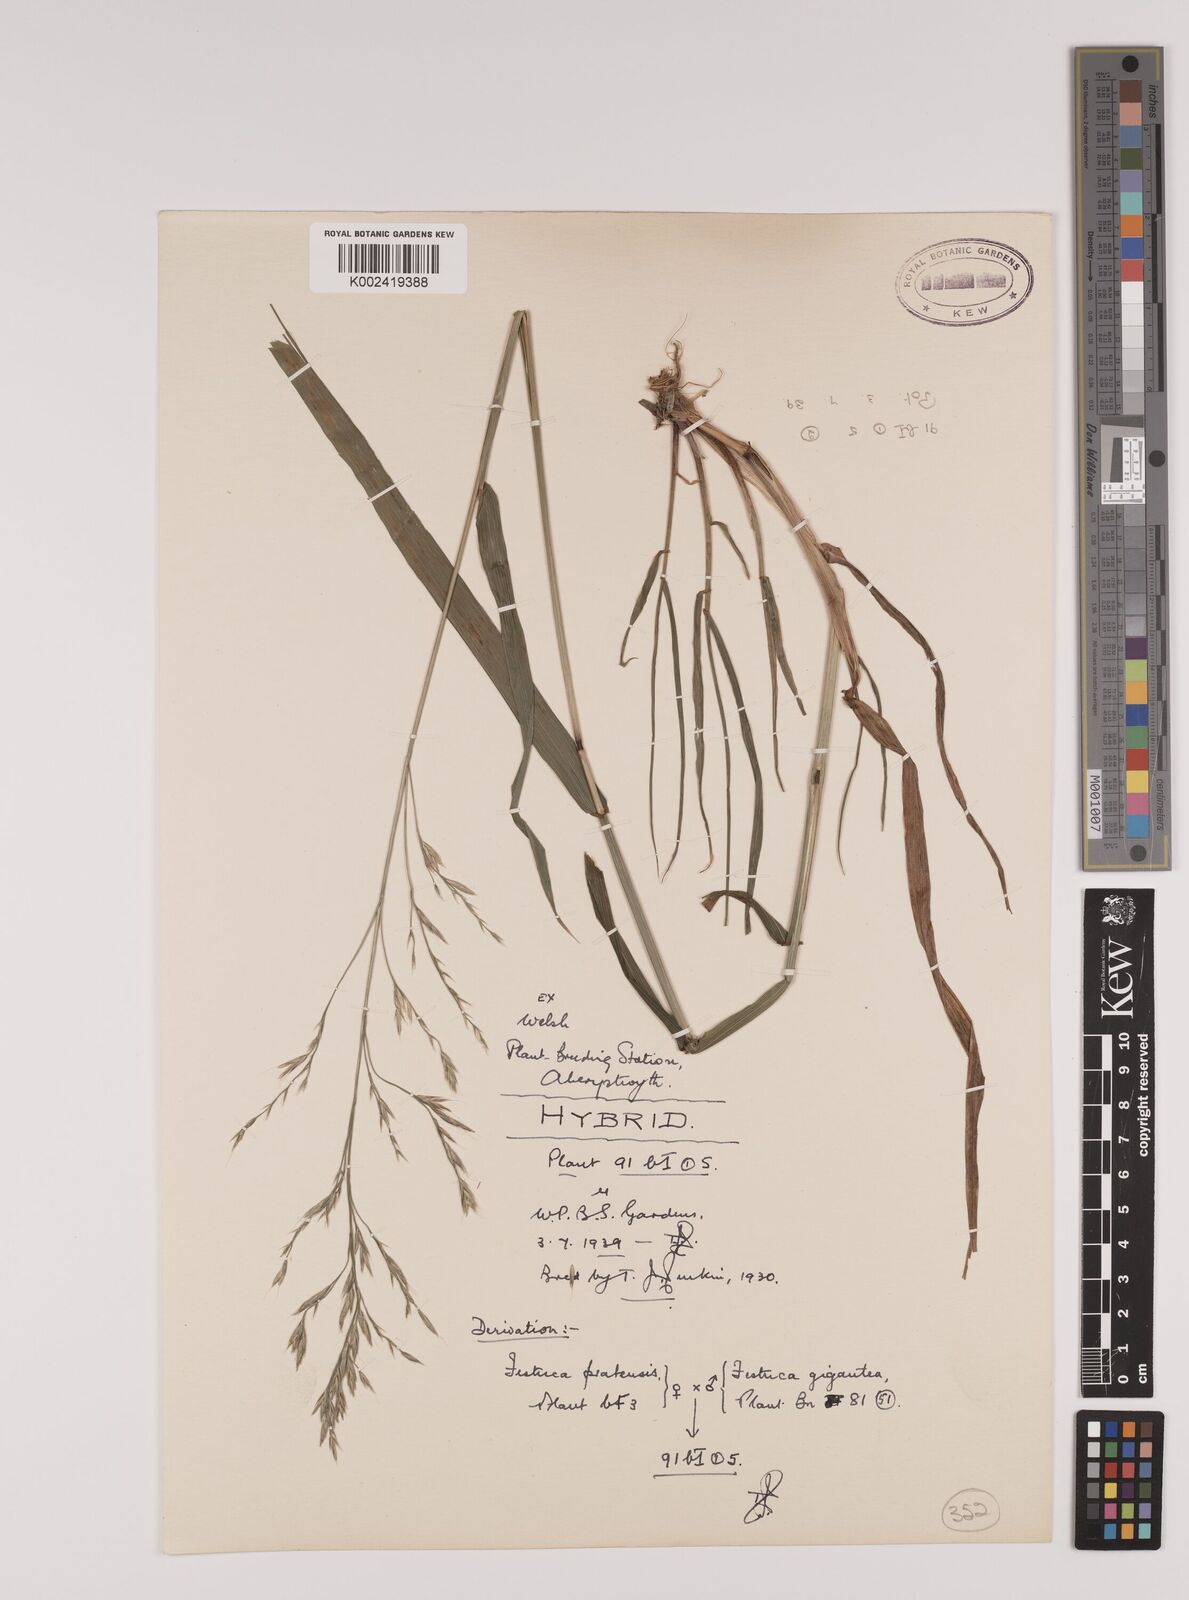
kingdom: Plantae
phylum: Tracheophyta
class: Liliopsida
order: Poales
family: Poaceae
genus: Lolium
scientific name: Lolium giganteum
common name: Giant fescue
